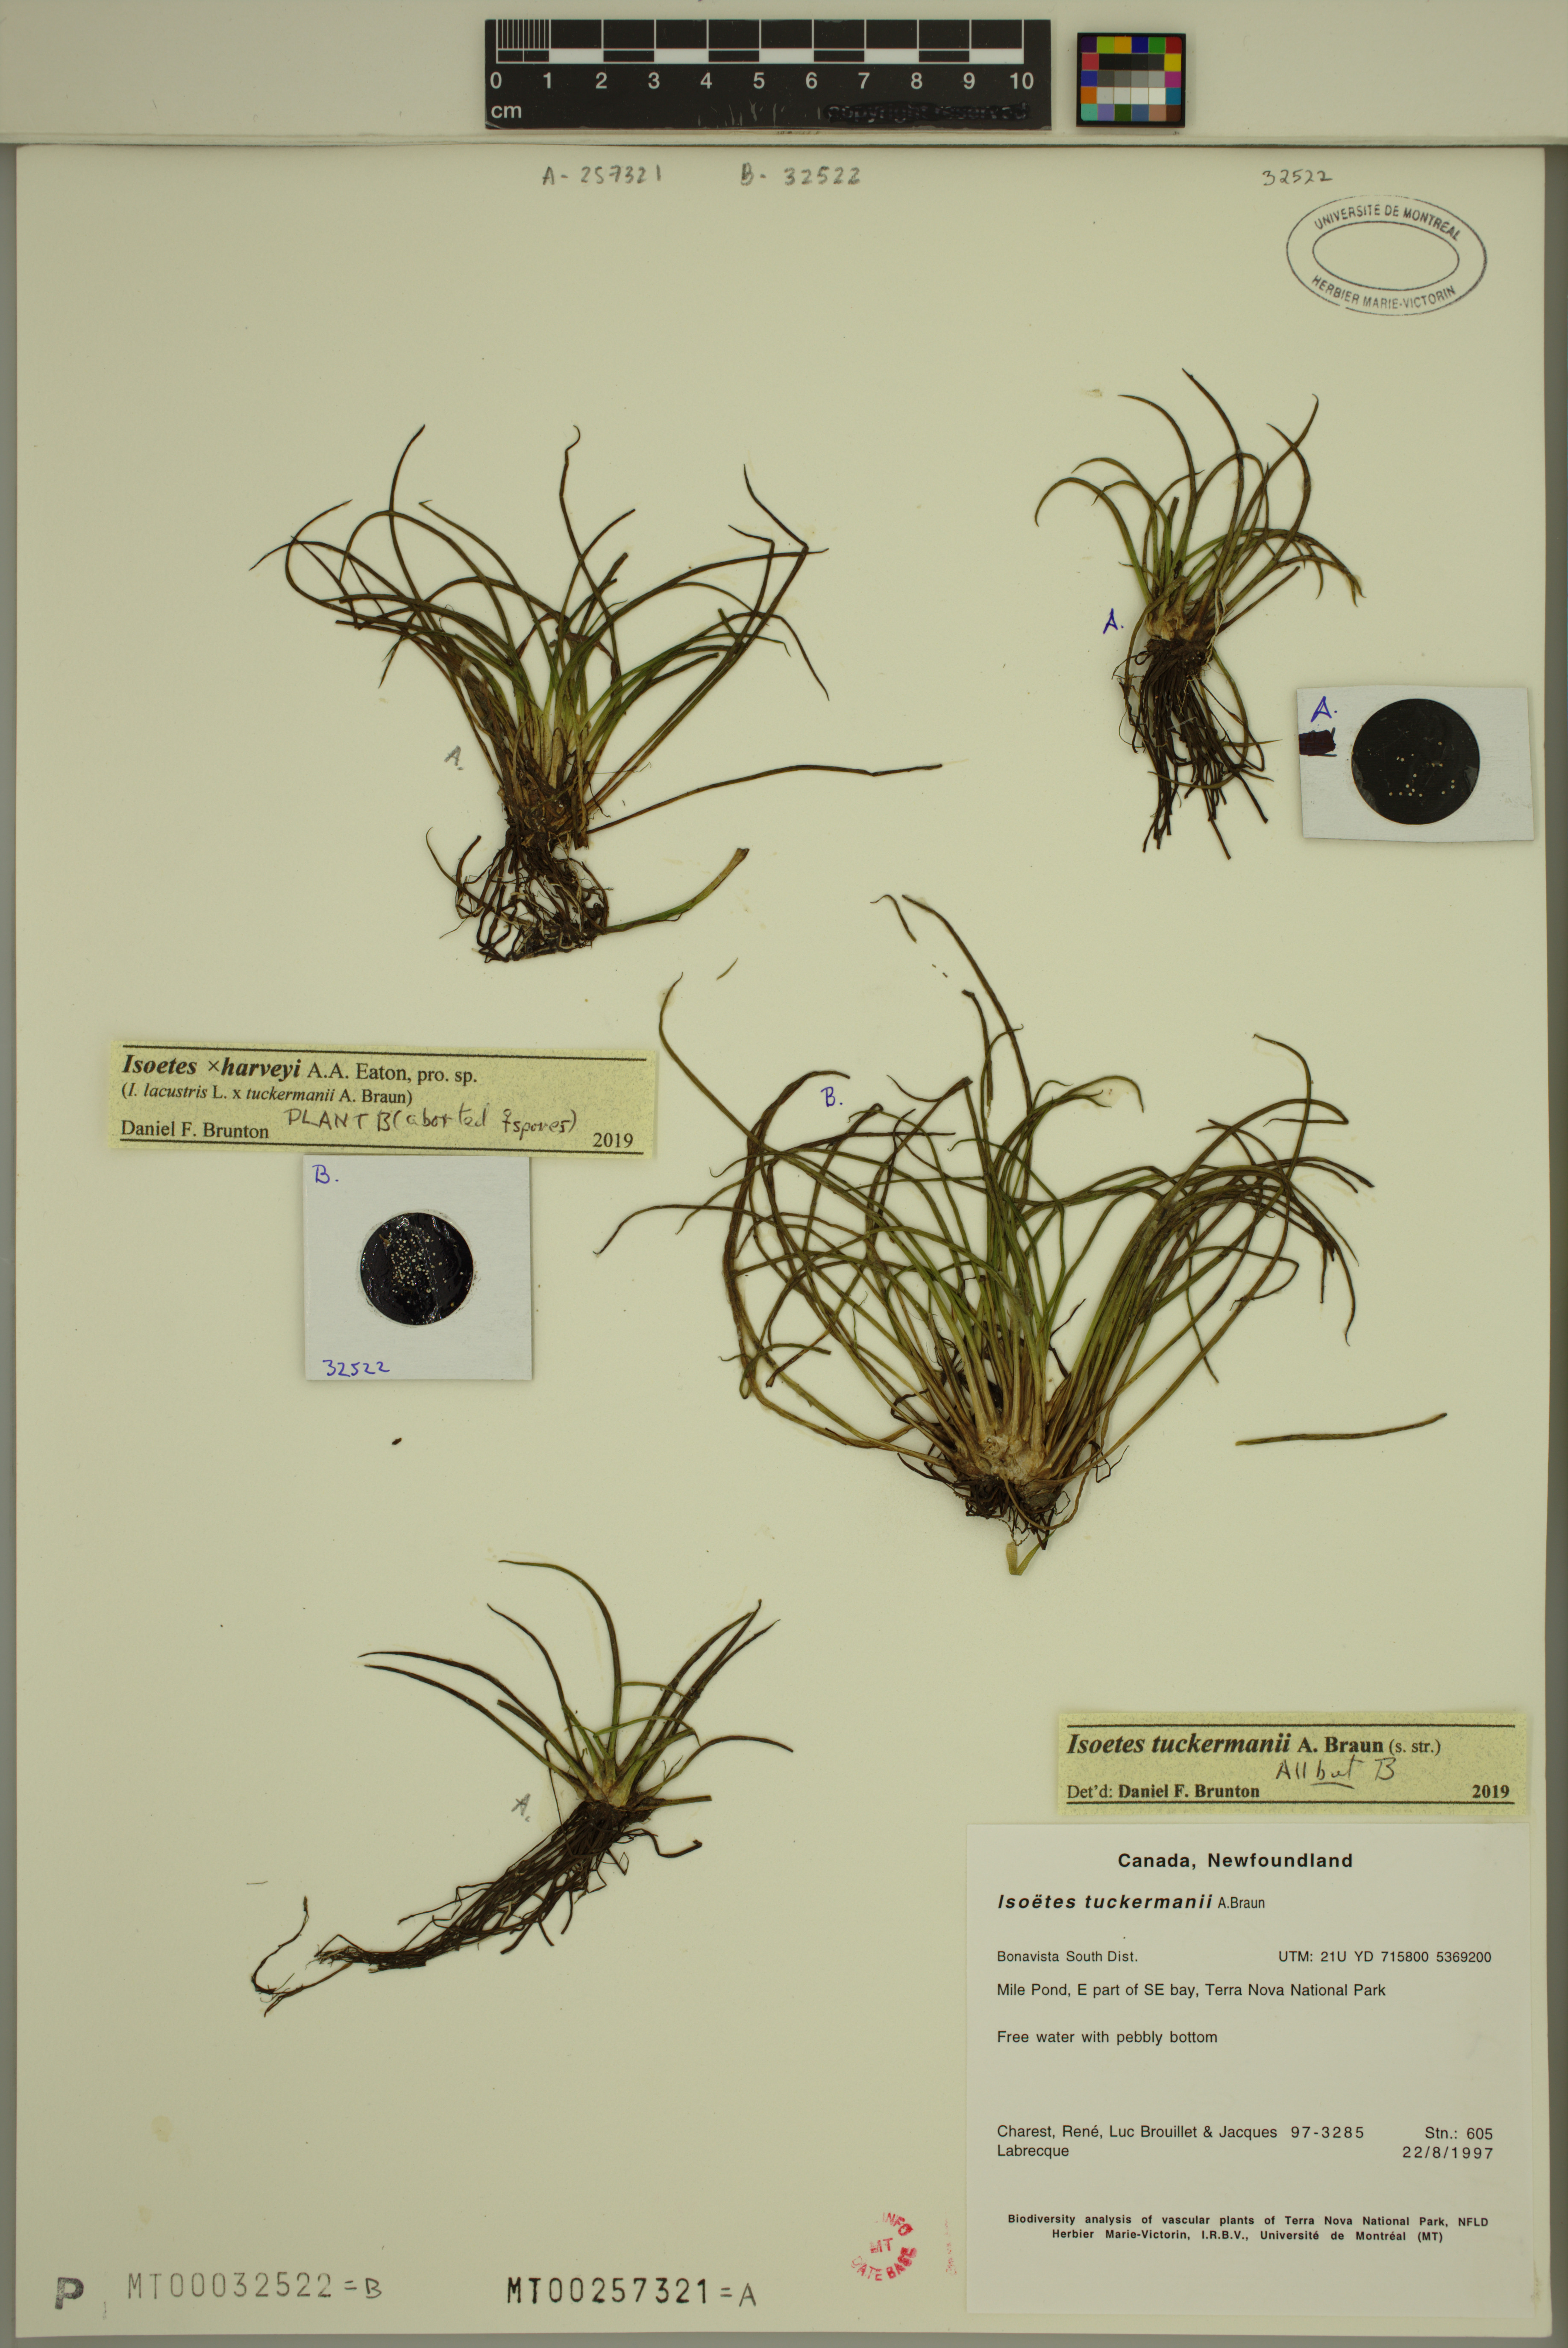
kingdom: Plantae
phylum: Tracheophyta
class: Lycopodiopsida
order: Isoetales
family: Isoetaceae
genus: Isoetes
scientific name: Isoetes harveyi
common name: Harvey's quillwort
